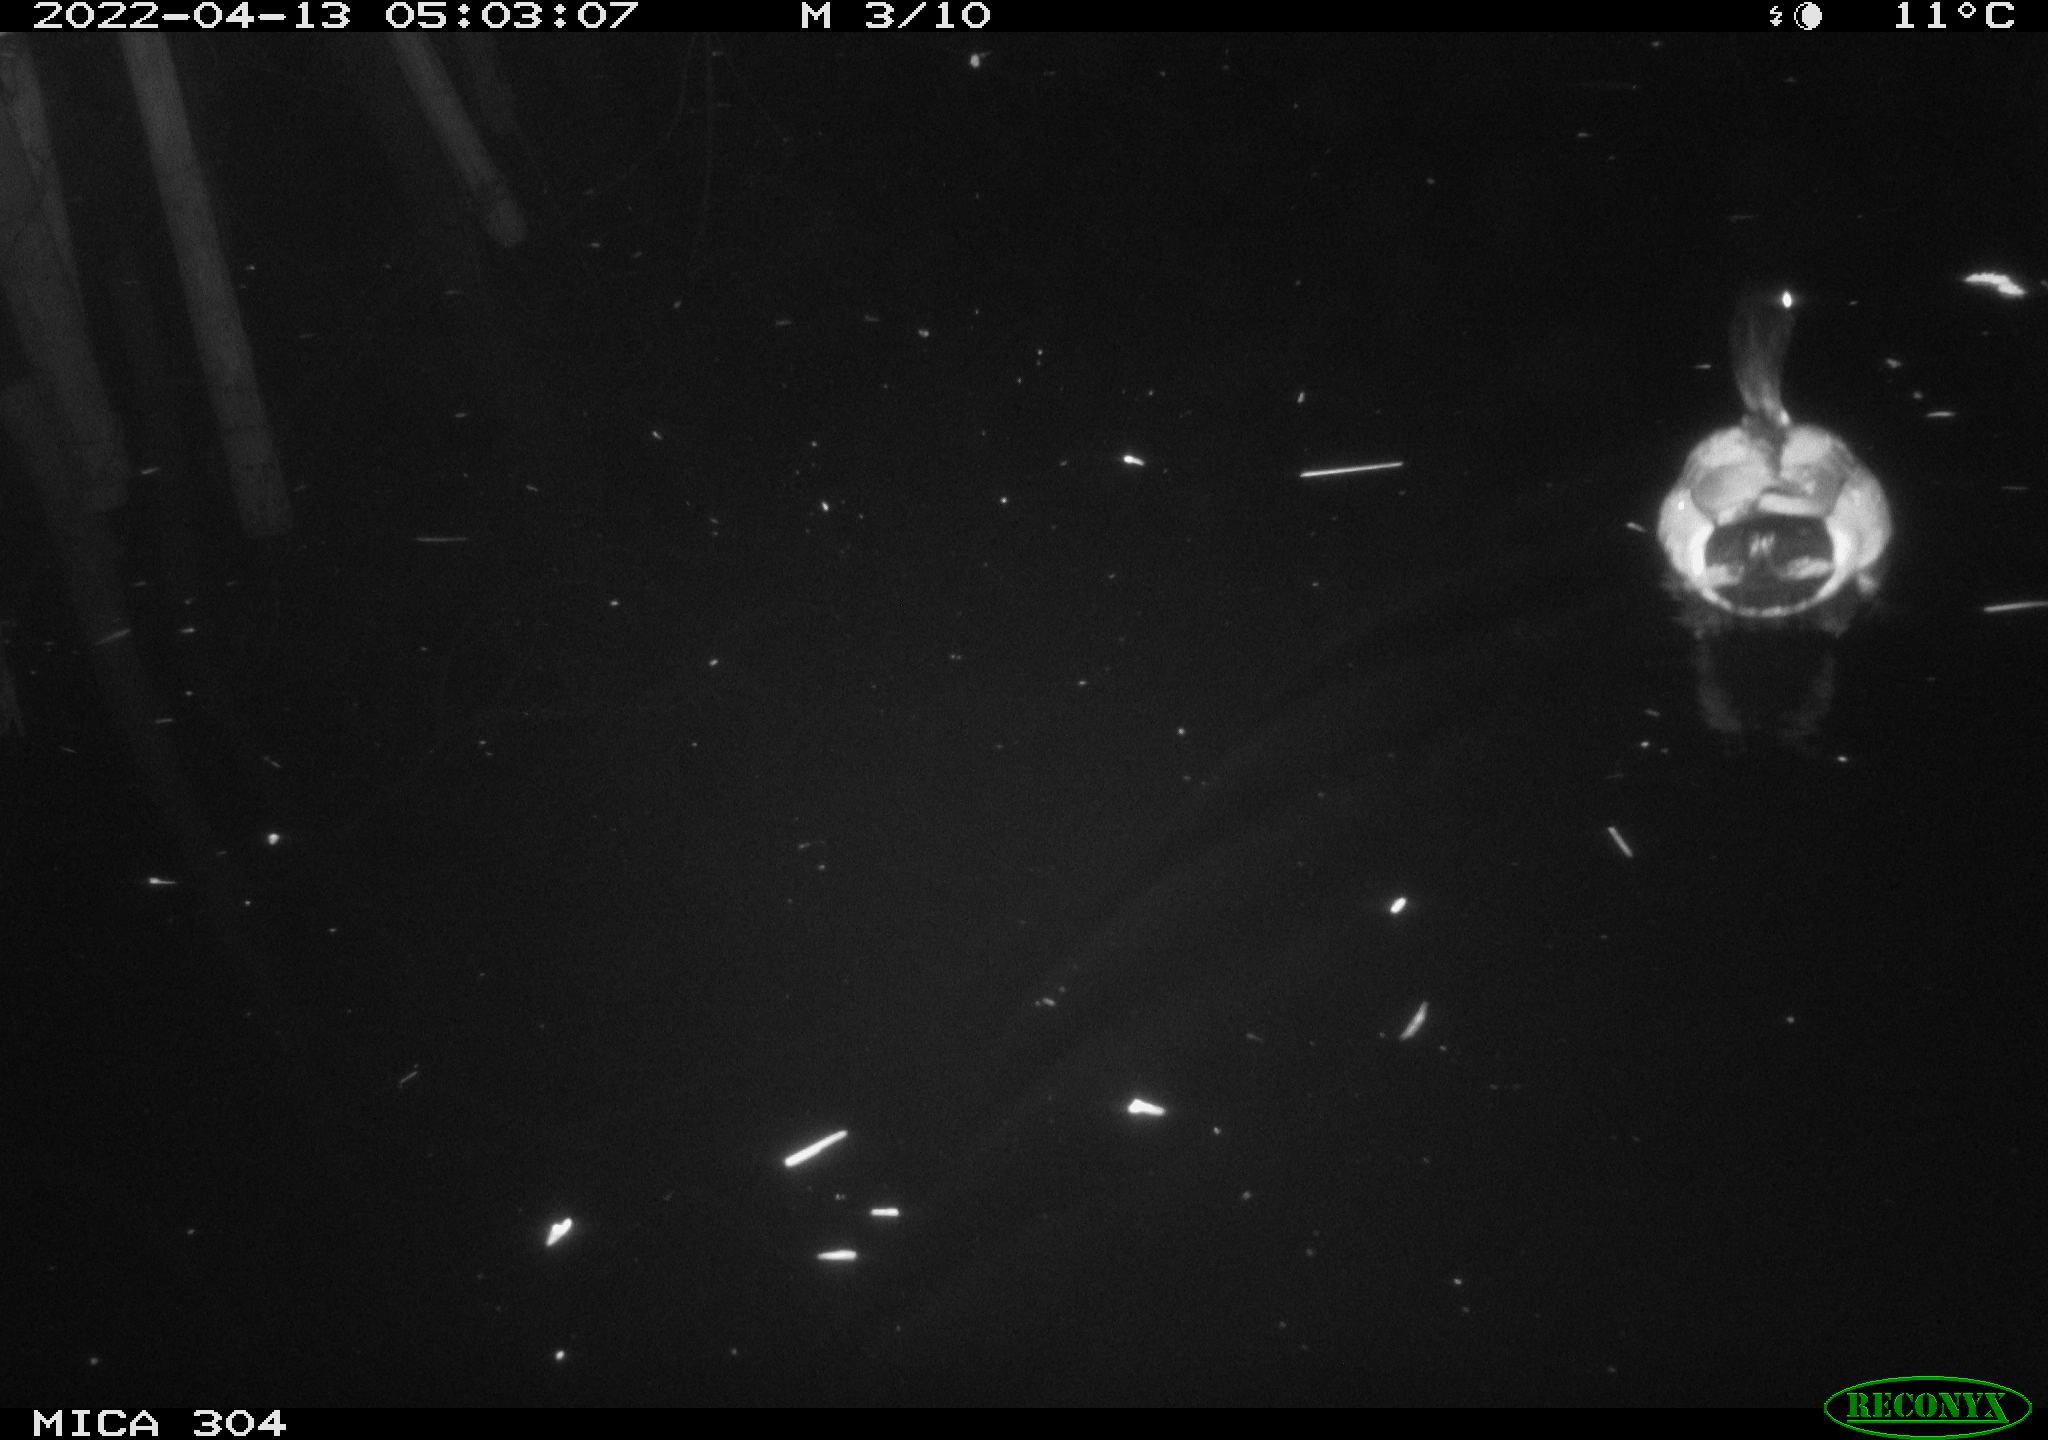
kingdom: Animalia
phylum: Chordata
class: Aves
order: Anseriformes
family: Anatidae
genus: Anas
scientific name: Anas platyrhynchos
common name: Mallard
